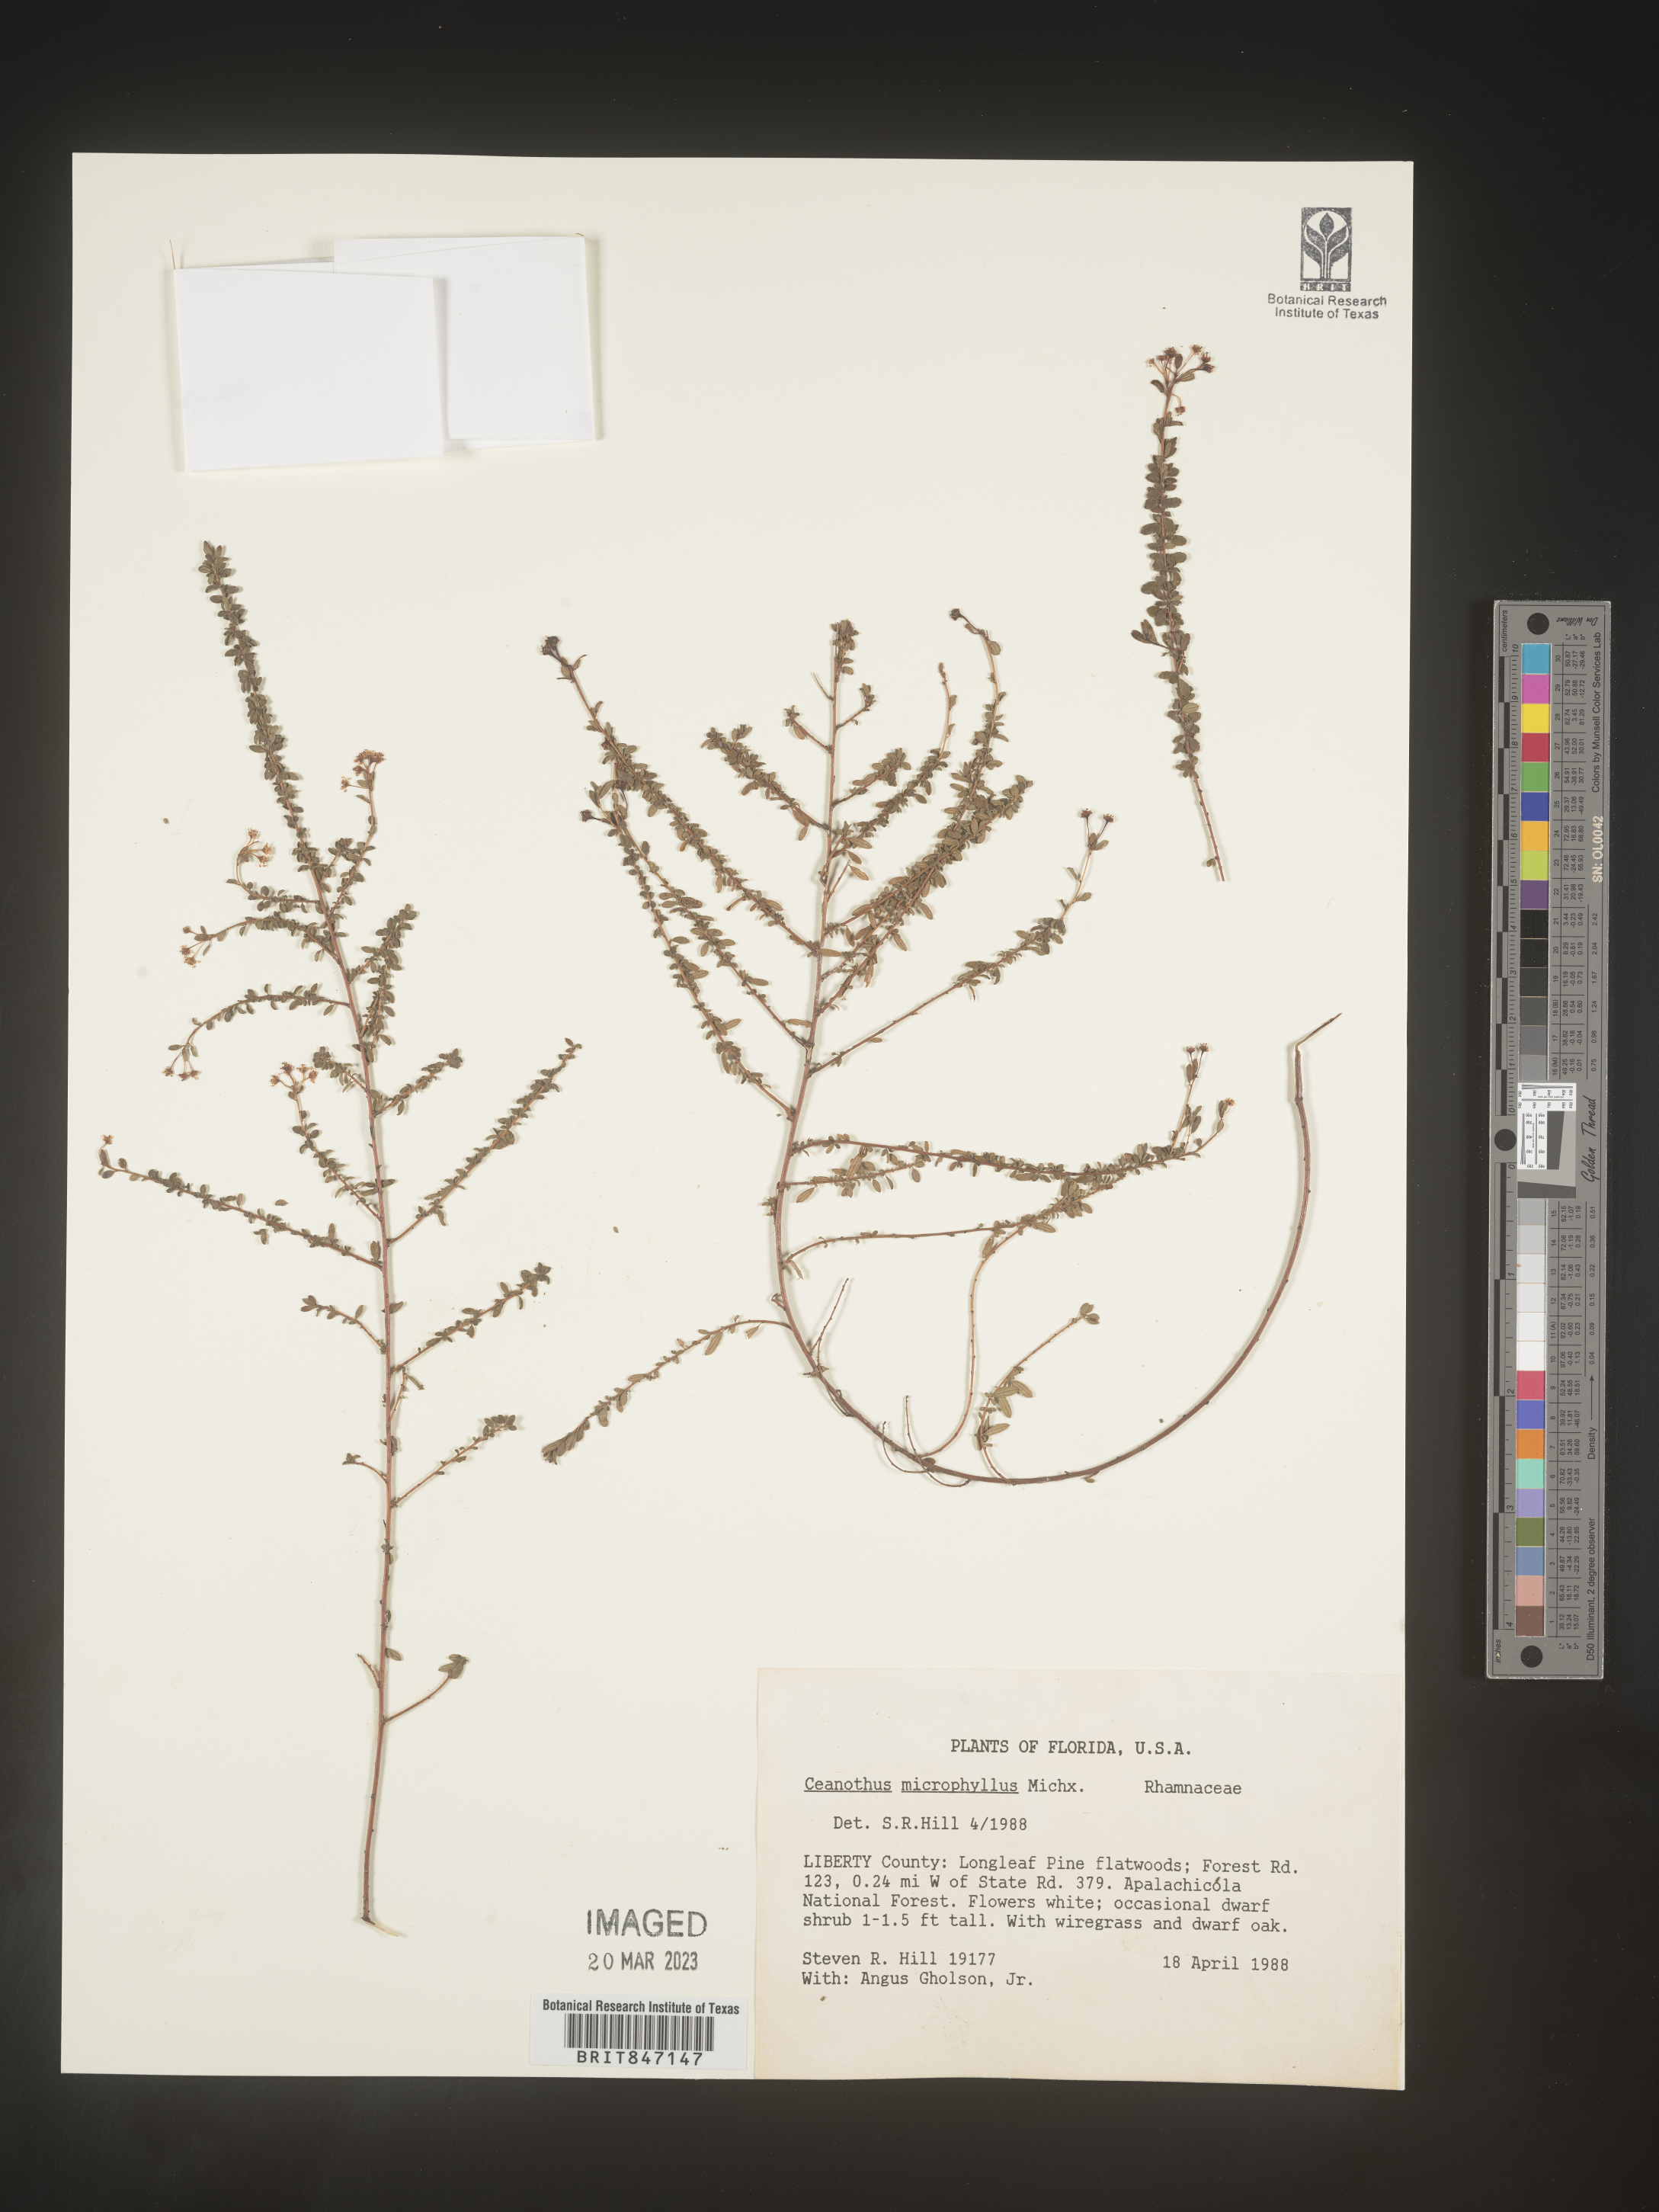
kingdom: Plantae
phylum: Tracheophyta
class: Magnoliopsida
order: Rosales
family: Rhamnaceae
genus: Ceanothus
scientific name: Ceanothus
